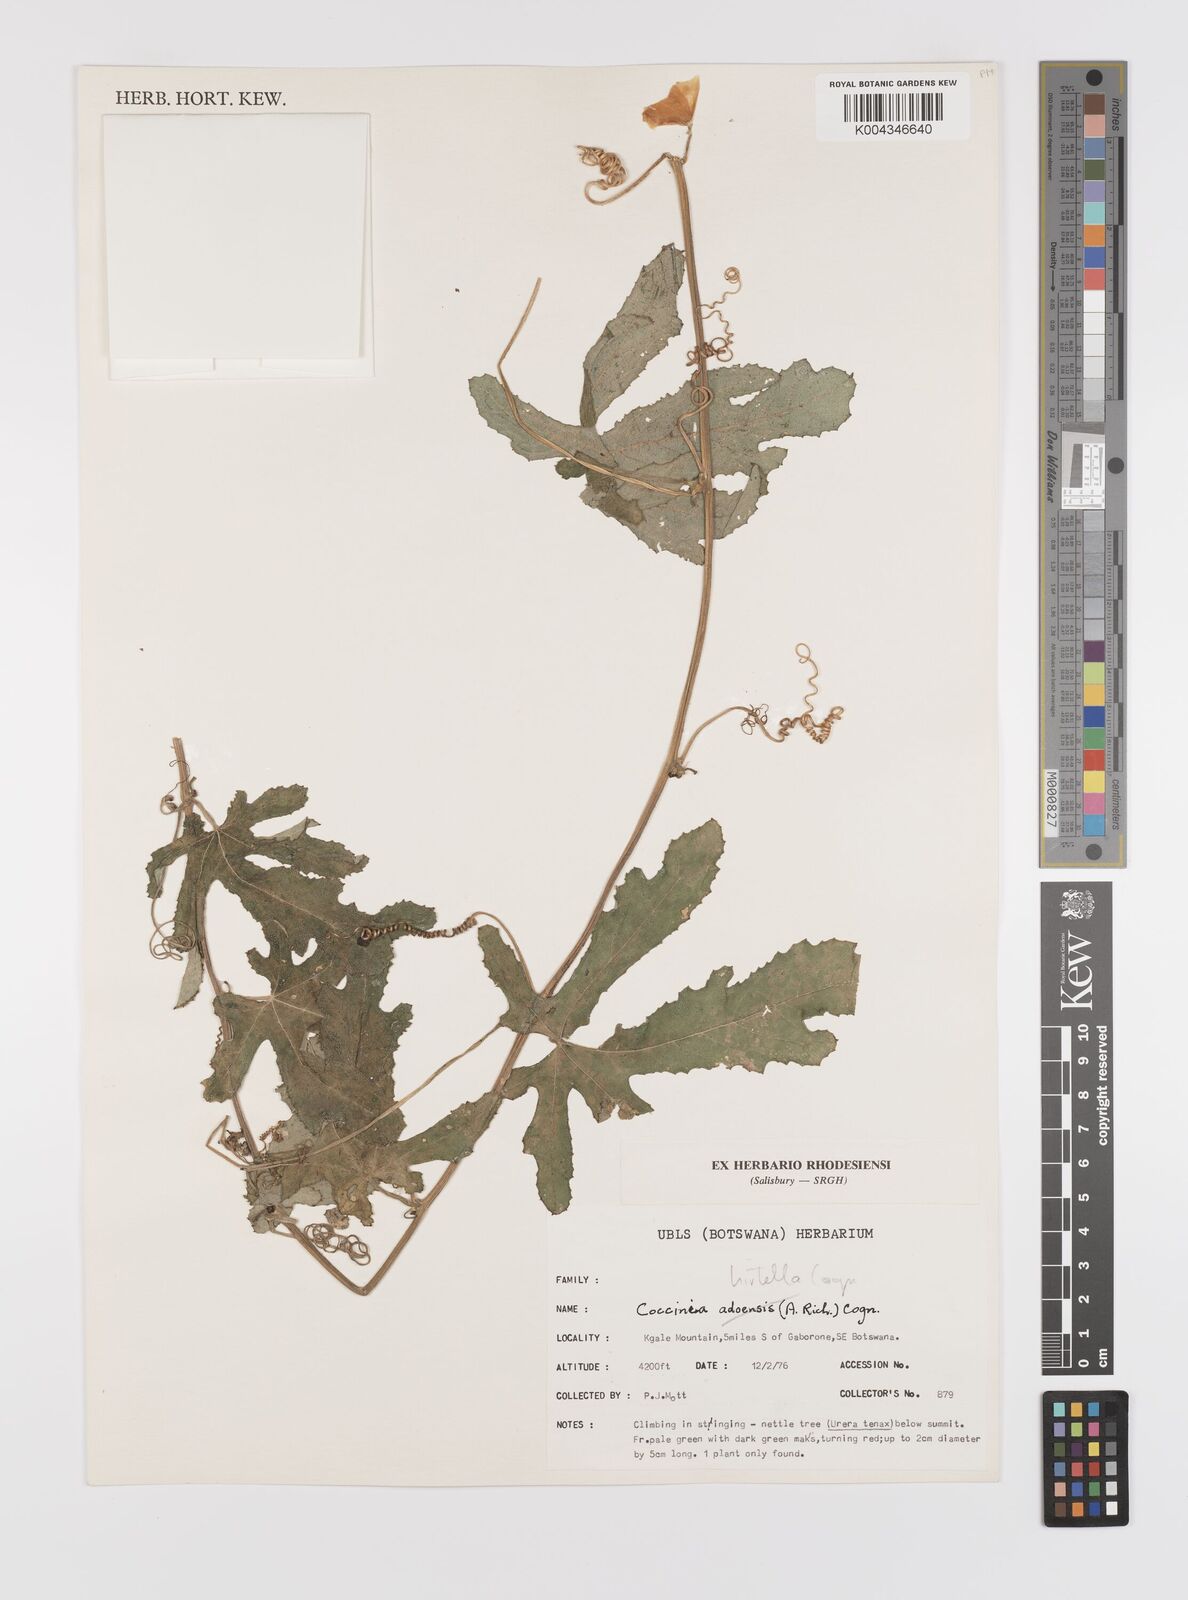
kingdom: Plantae
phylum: Tracheophyta
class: Magnoliopsida
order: Cucurbitales
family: Cucurbitaceae
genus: Coccinia
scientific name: Coccinia hirtella
